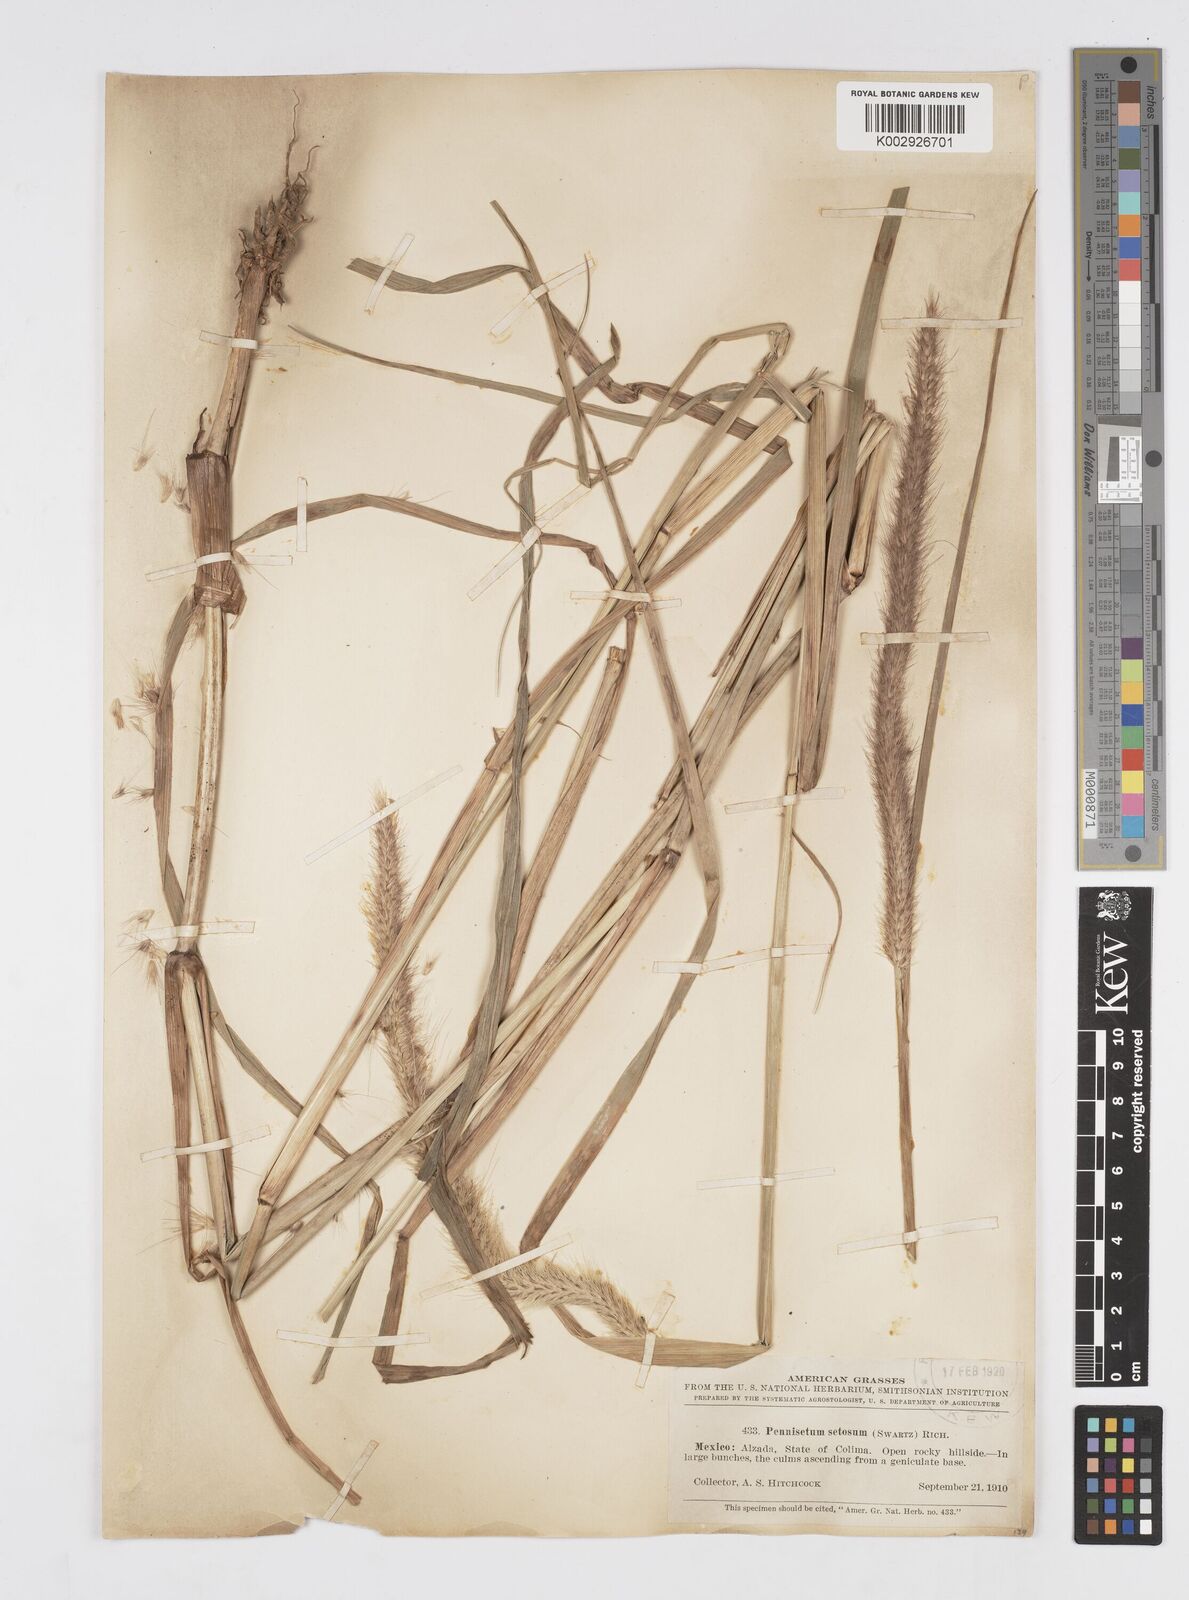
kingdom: Plantae
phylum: Tracheophyta
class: Liliopsida
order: Poales
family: Poaceae
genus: Cenchrus
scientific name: Cenchrus setosus
